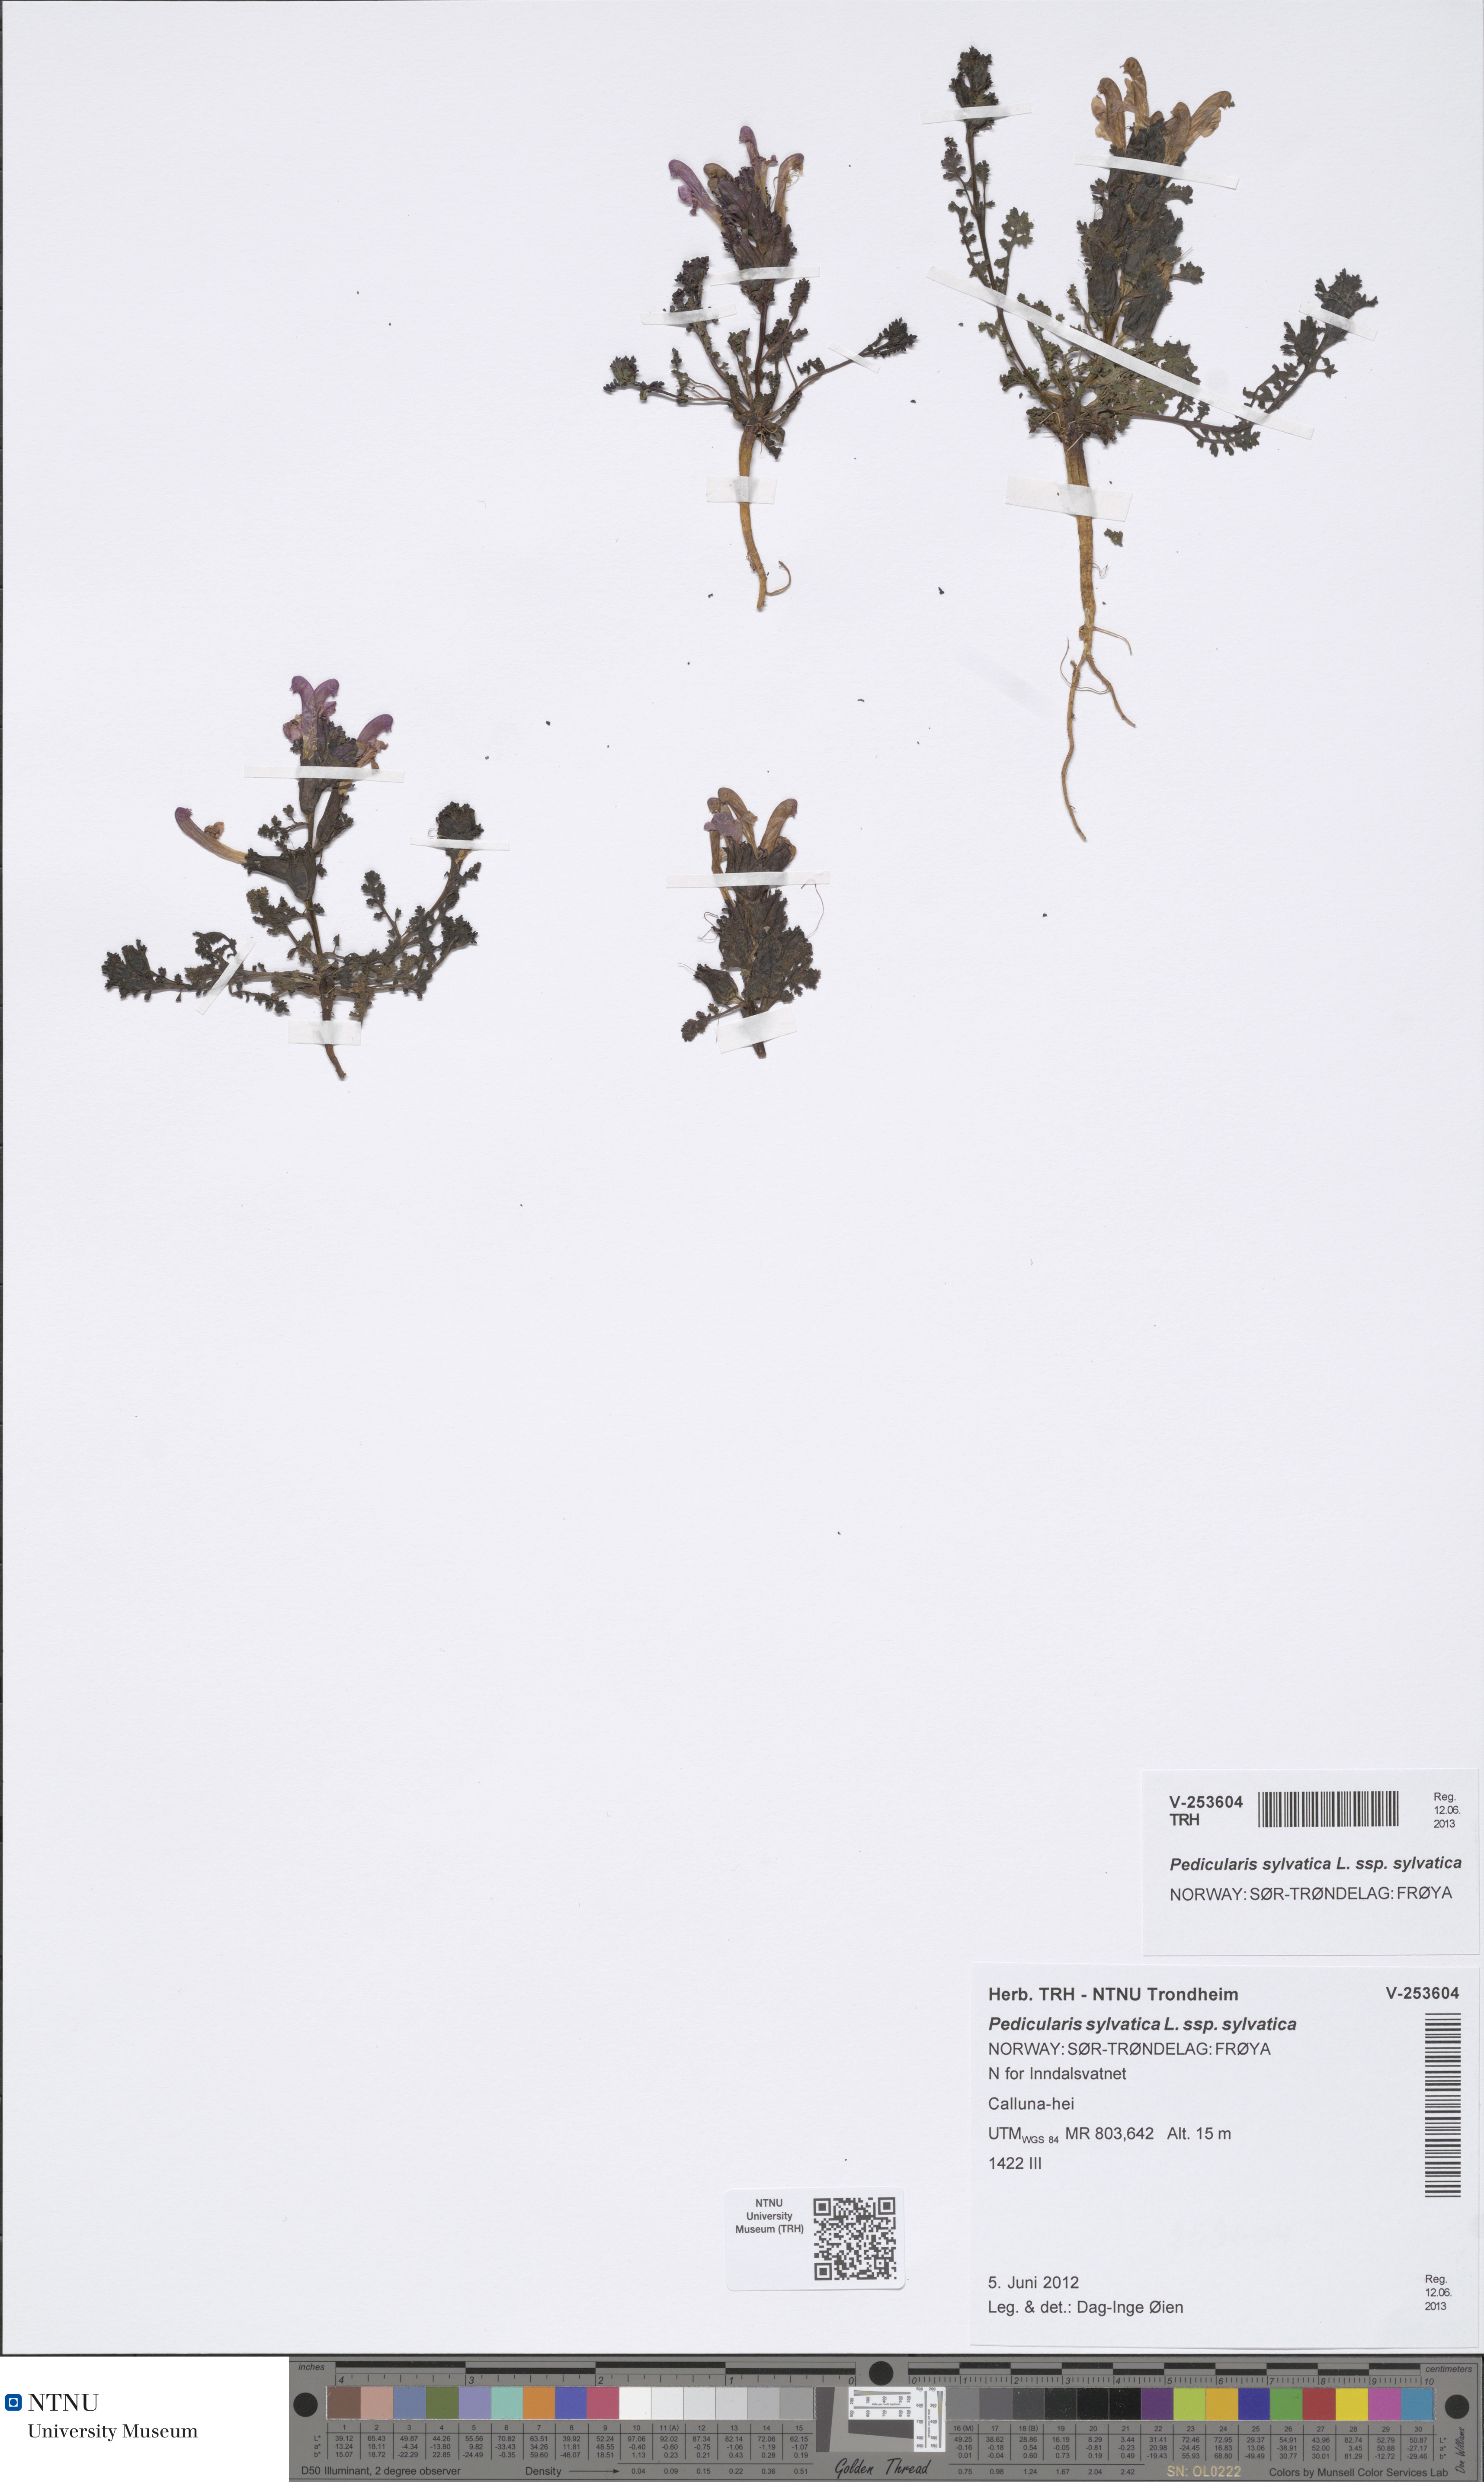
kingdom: Plantae
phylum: Tracheophyta
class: Magnoliopsida
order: Lamiales
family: Orobanchaceae
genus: Pedicularis
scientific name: Pedicularis sylvatica
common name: Lousewort
